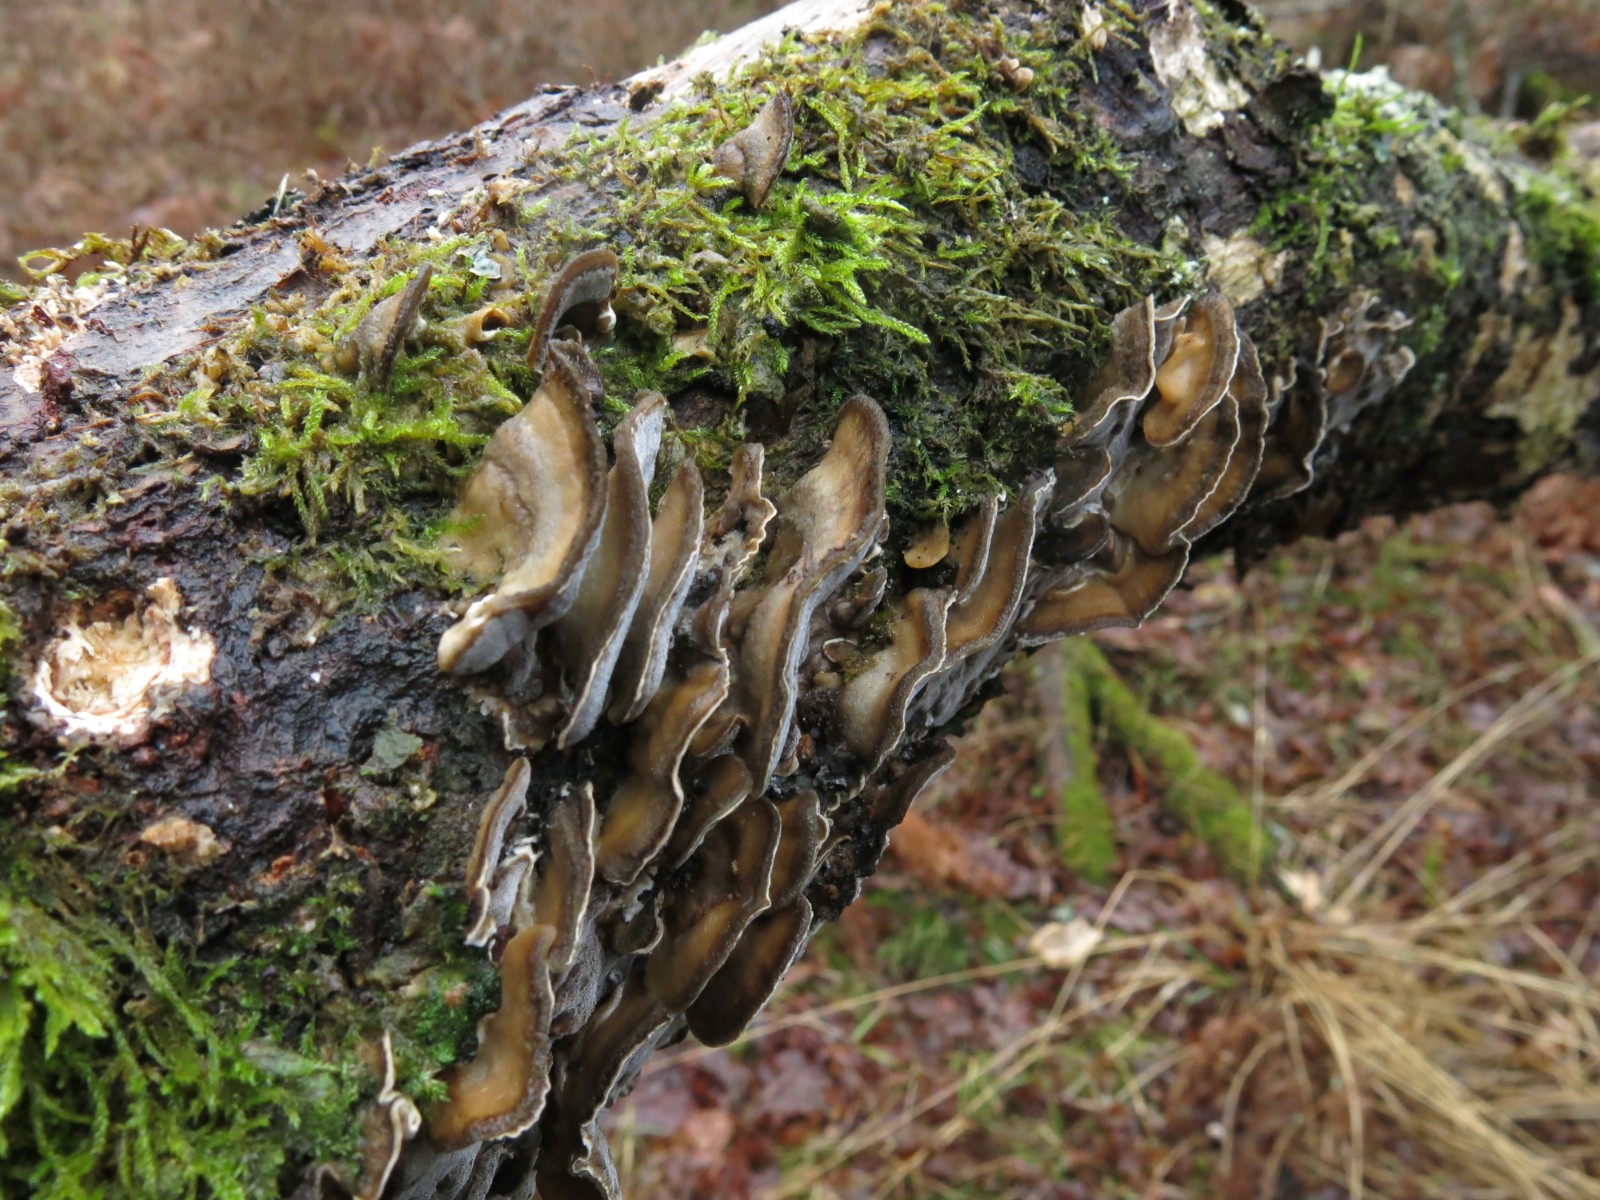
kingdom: Fungi
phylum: Basidiomycota
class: Agaricomycetes
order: Polyporales
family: Phanerochaetaceae
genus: Bjerkandera
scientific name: Bjerkandera adusta
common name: sveden sodporesvamp
